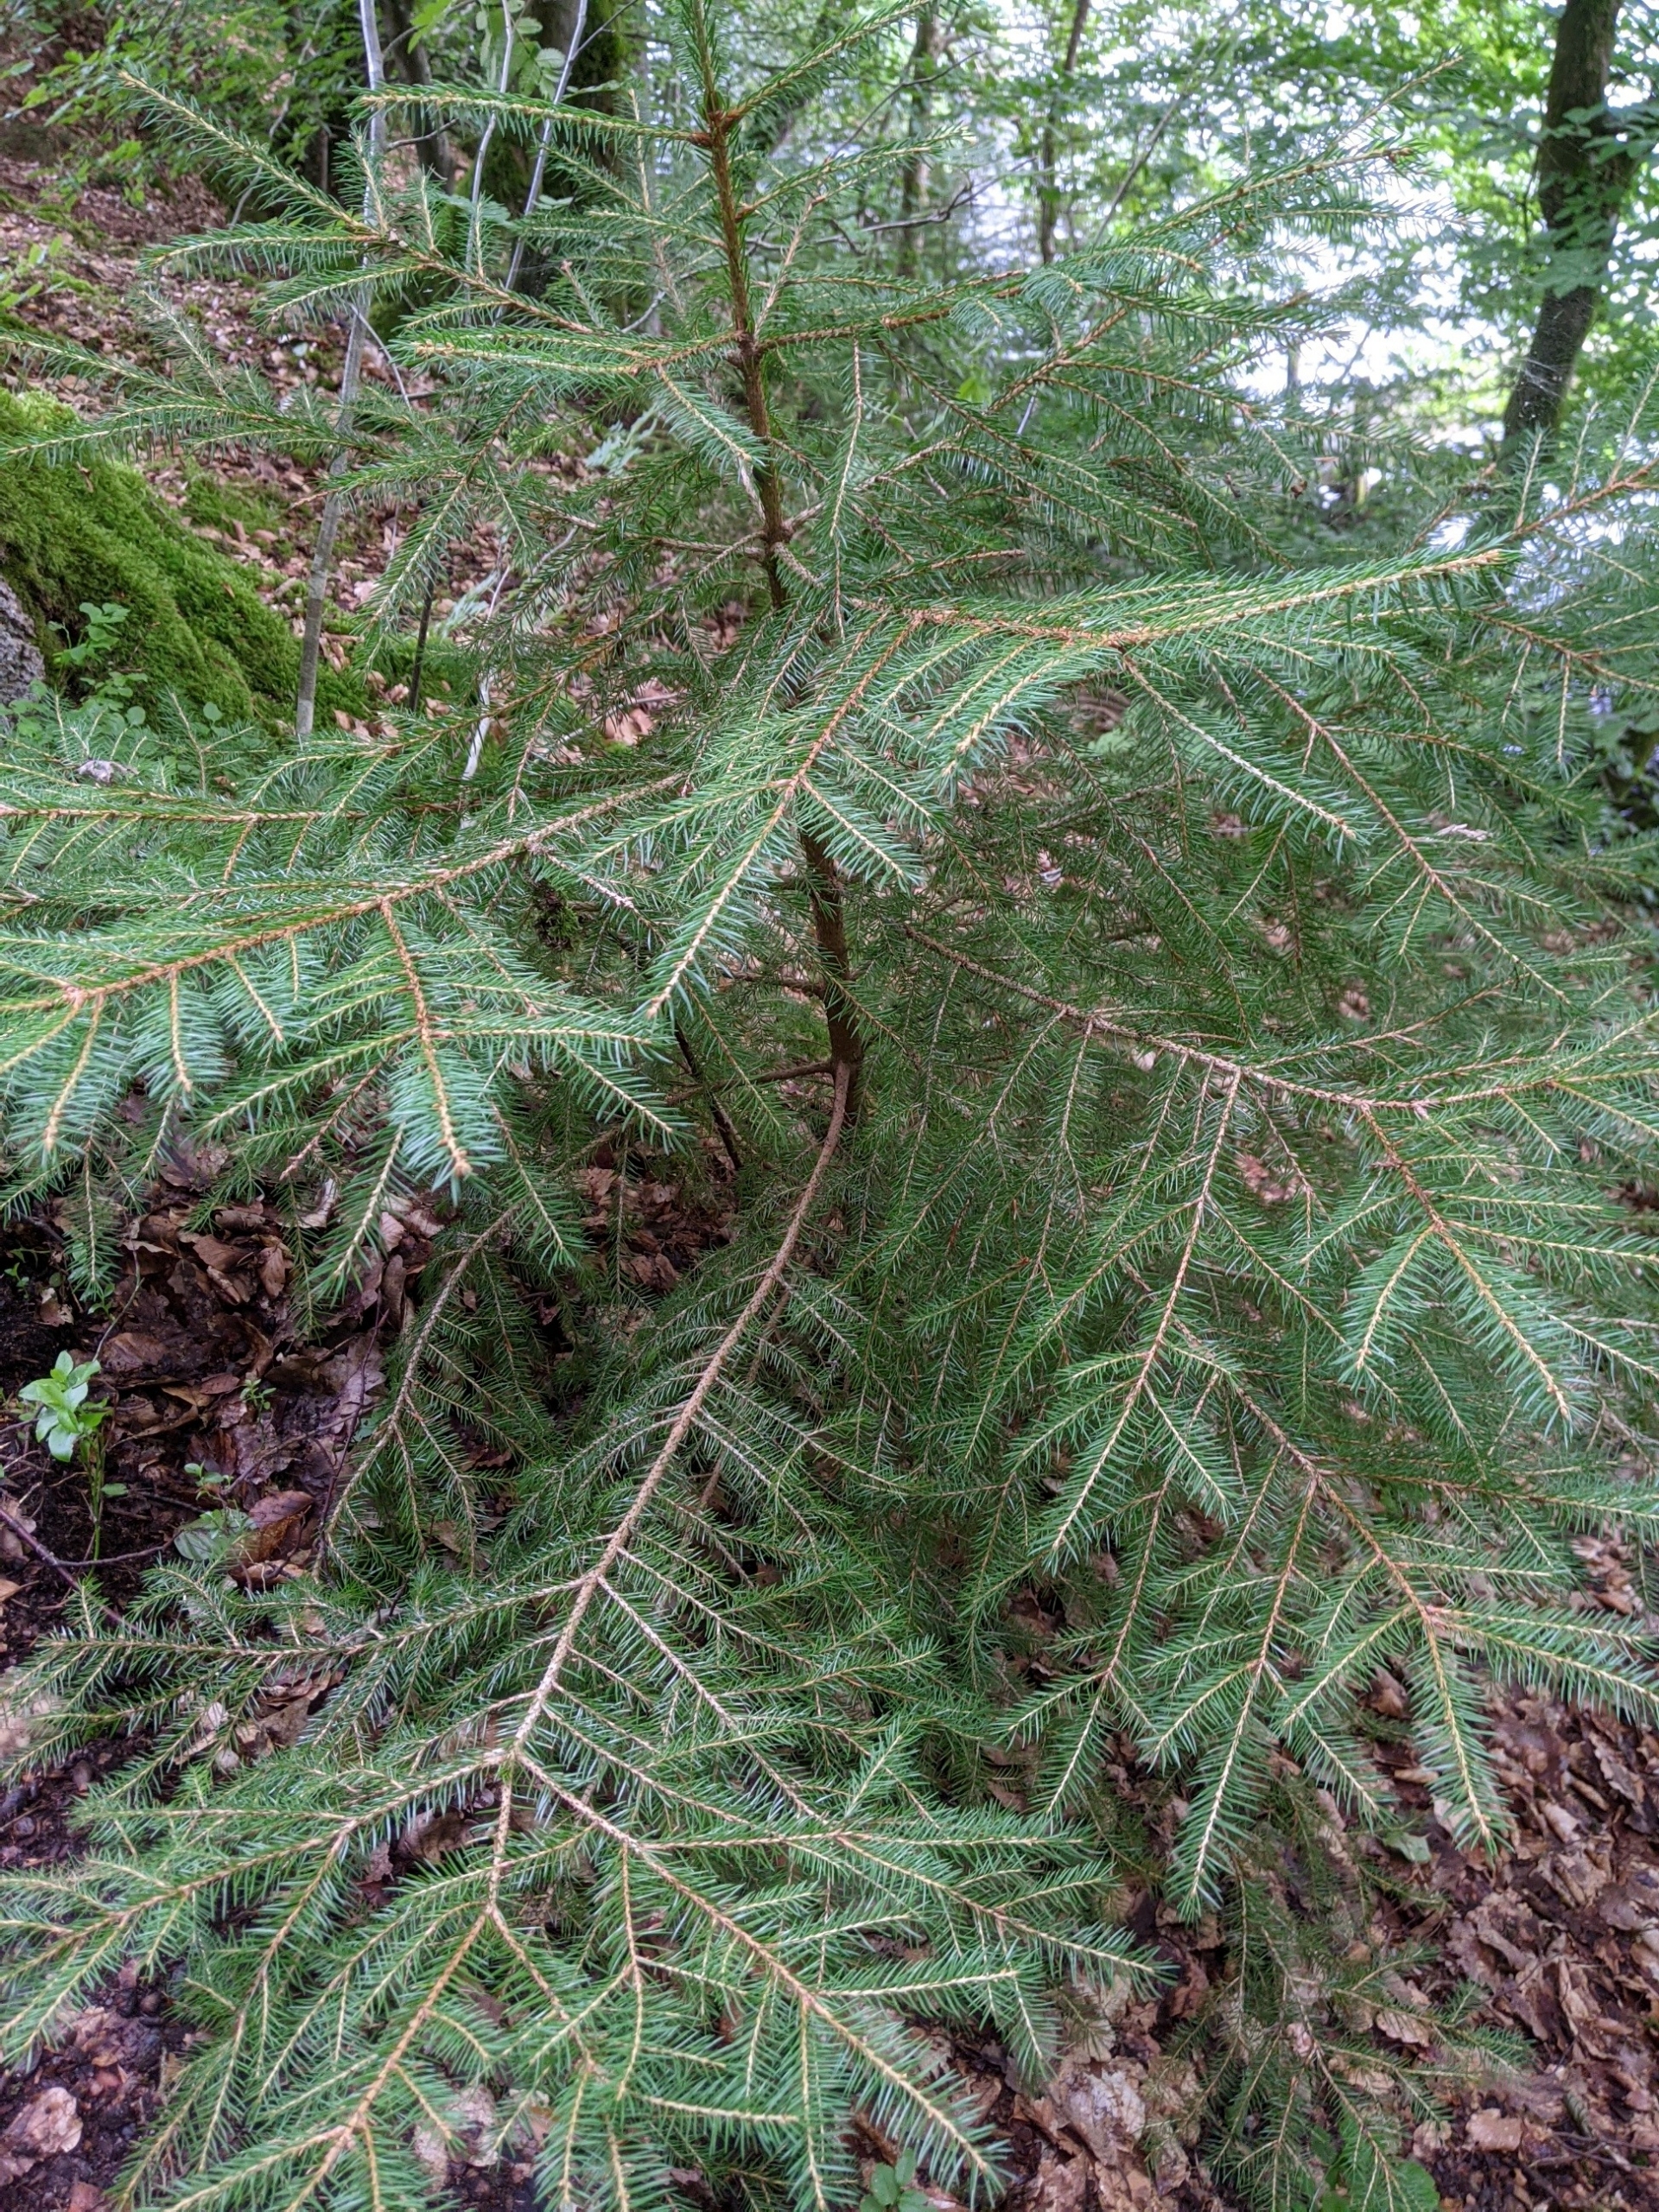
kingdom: Plantae
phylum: Tracheophyta
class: Pinopsida
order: Pinales
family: Pinaceae
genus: Picea
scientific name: Picea abies
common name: Rød-gran
